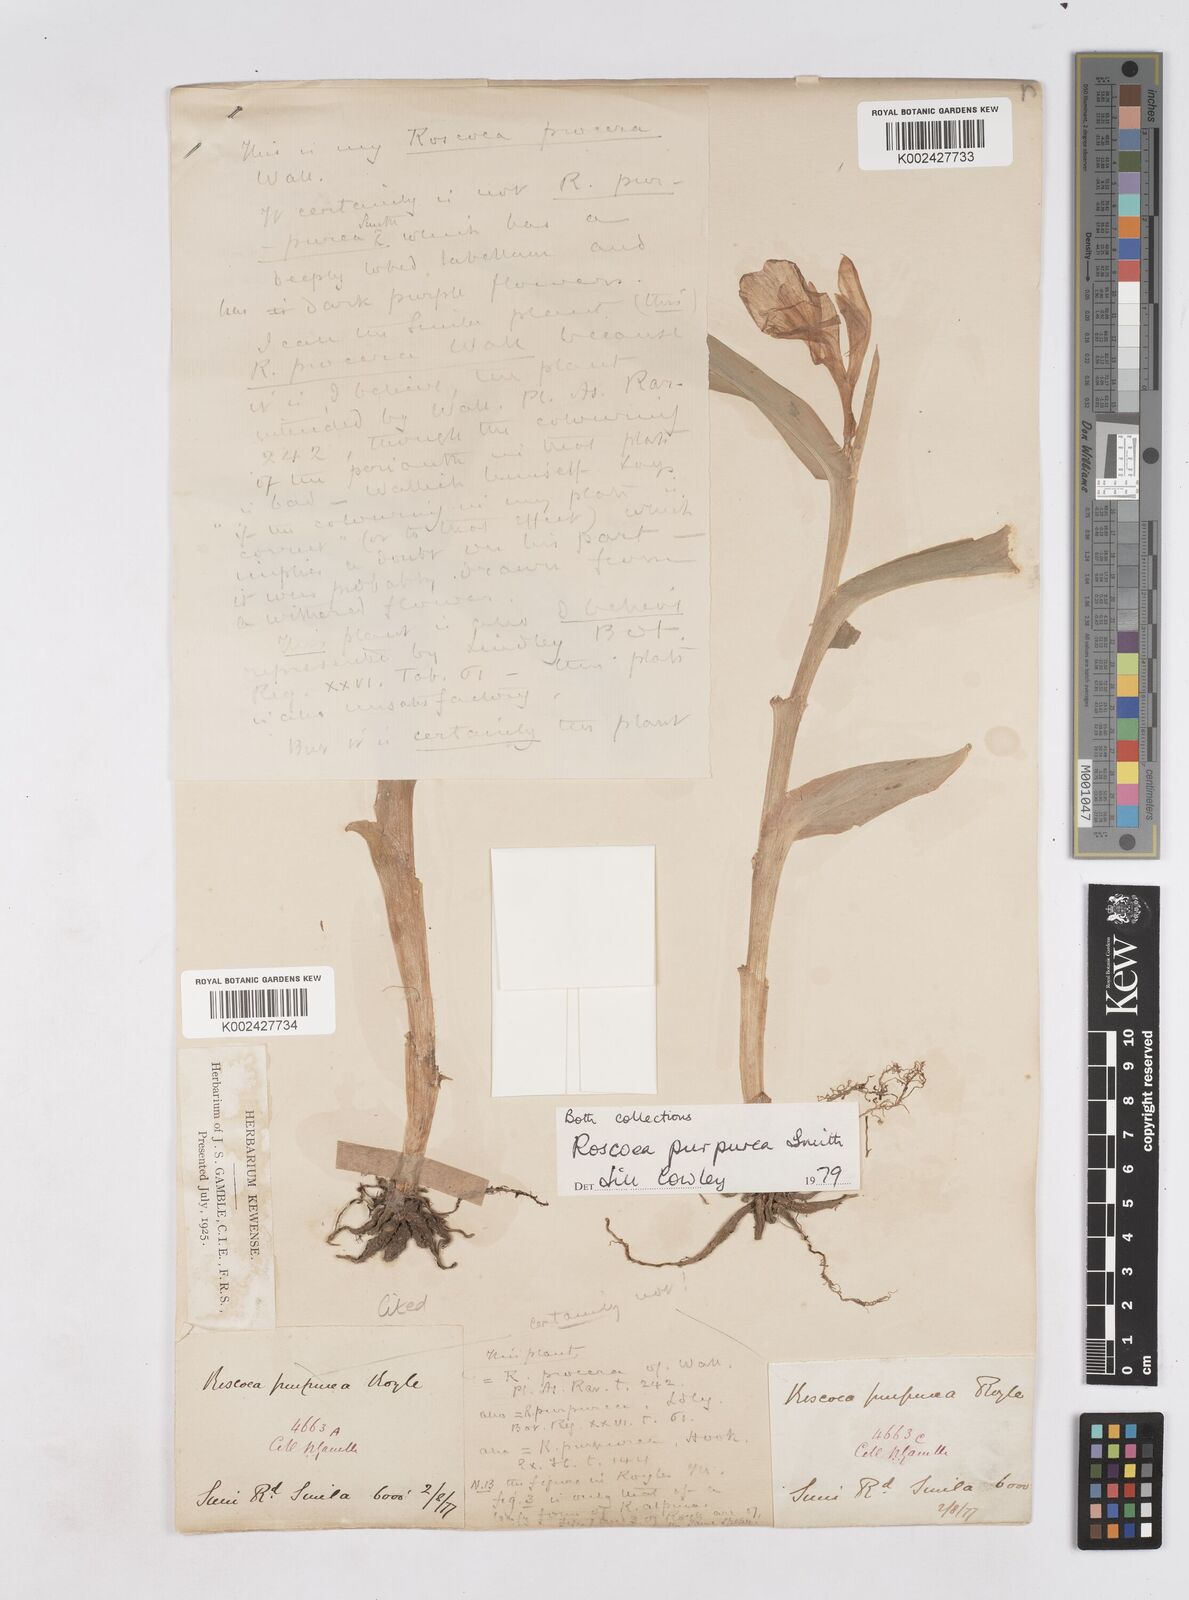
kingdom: Plantae
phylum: Tracheophyta
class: Liliopsida
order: Zingiberales
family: Zingiberaceae
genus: Roscoea
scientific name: Roscoea purpurea
